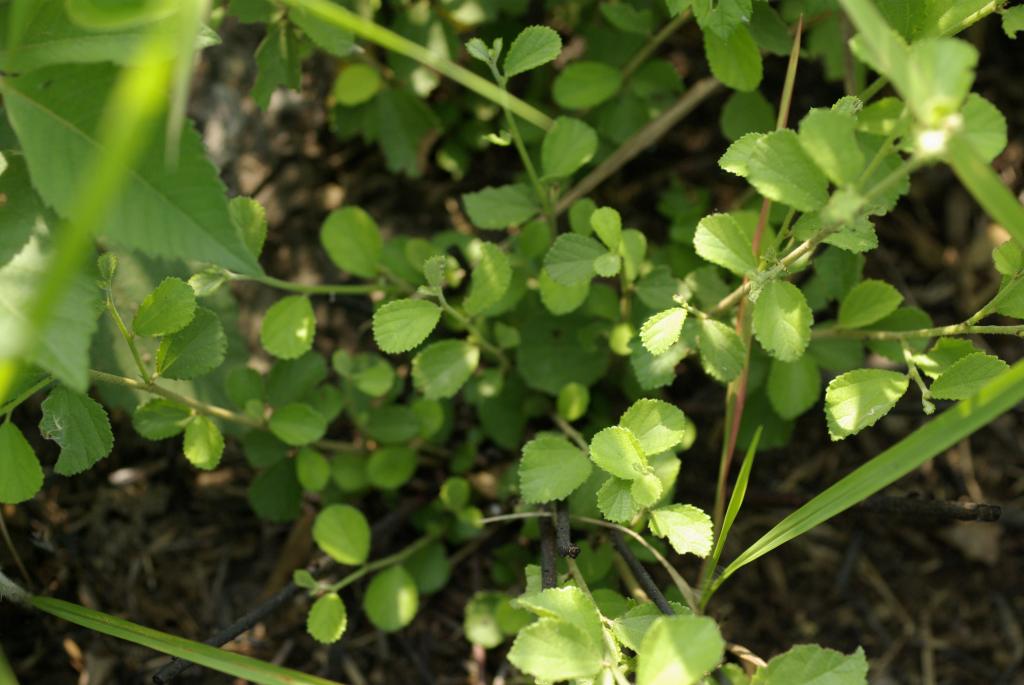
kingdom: Plantae
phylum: Tracheophyta
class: Magnoliopsida
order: Malvales
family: Malvaceae
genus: Grewia
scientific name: Grewia piscatorum
